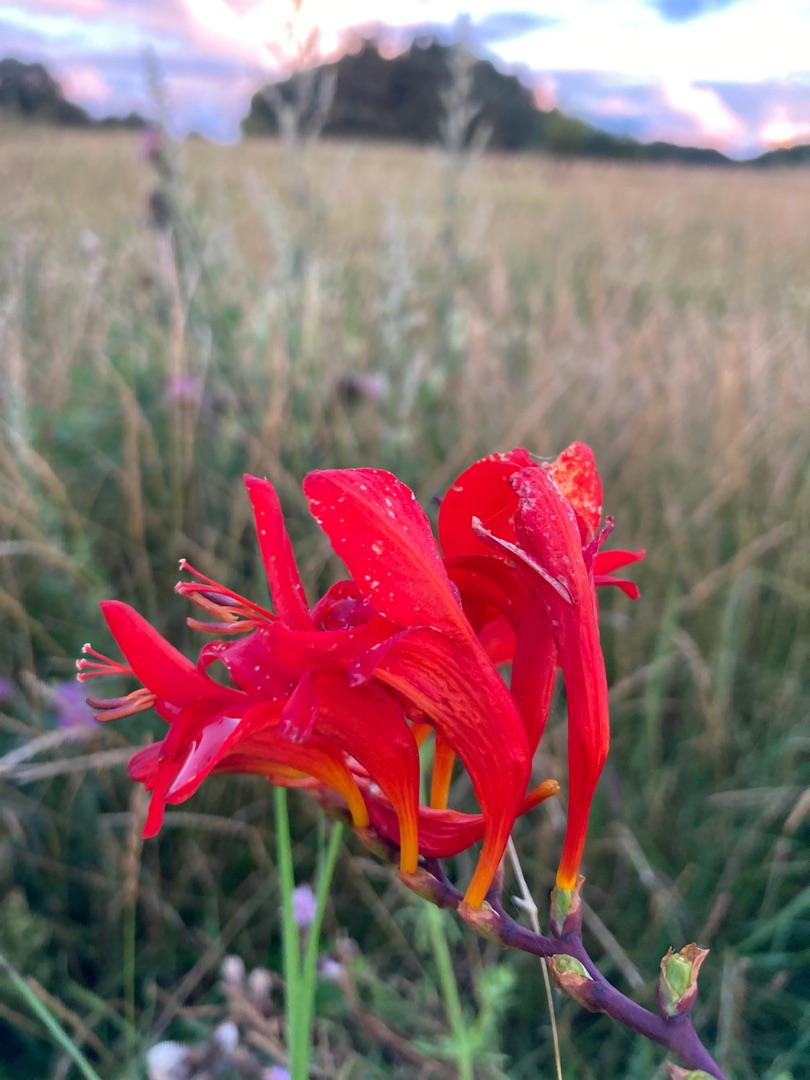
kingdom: Plantae
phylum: Tracheophyta
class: Liliopsida
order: Asparagales
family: Iridaceae
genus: Crocosmia
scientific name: Crocosmia crocosmiiflora
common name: Montbretie
